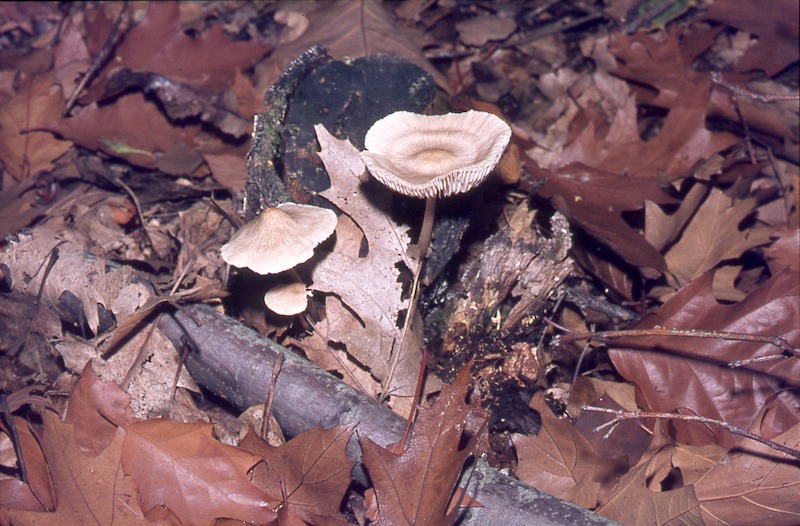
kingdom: Plantae
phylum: Tracheophyta
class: Magnoliopsida
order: Fagales
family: Betulaceae
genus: Betula
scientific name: Betula
